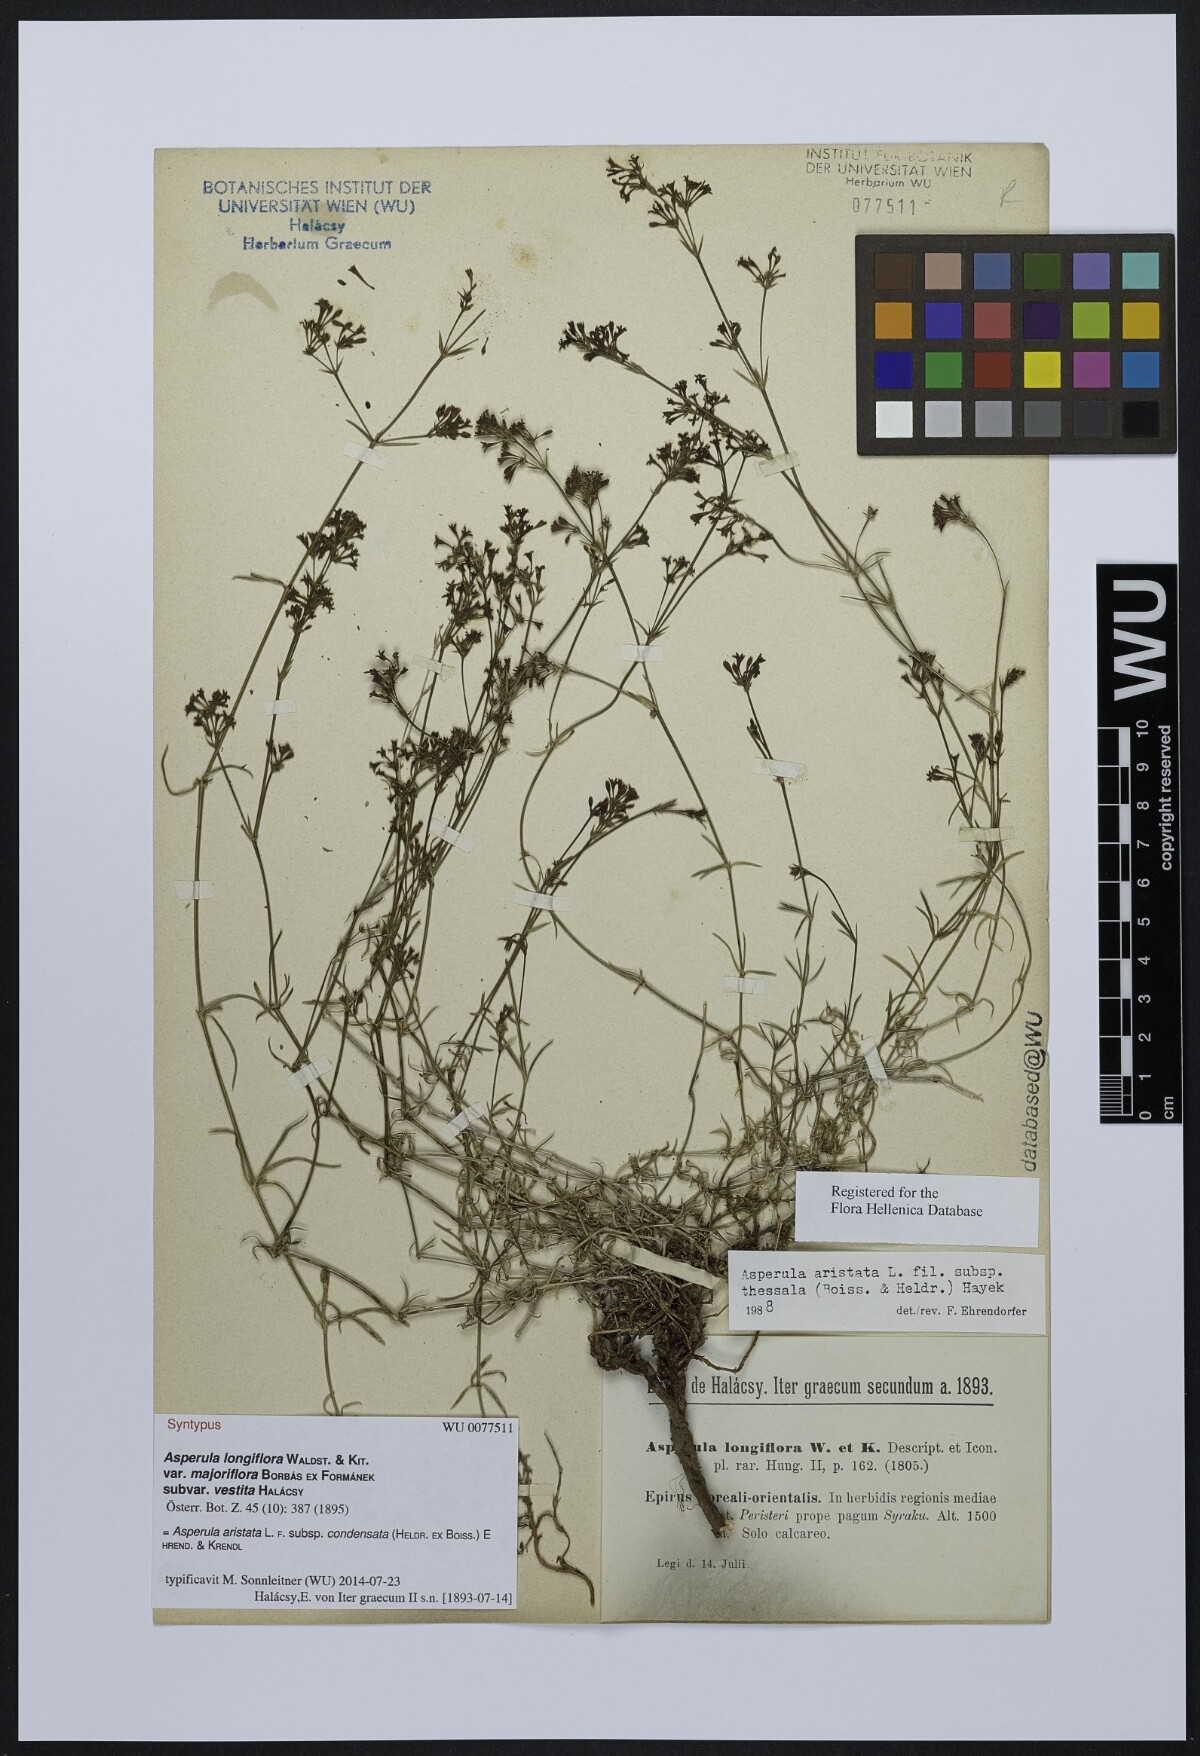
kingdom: Plantae
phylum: Tracheophyta
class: Magnoliopsida
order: Gentianales
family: Rubiaceae
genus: Asperula
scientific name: Asperula longiflora
